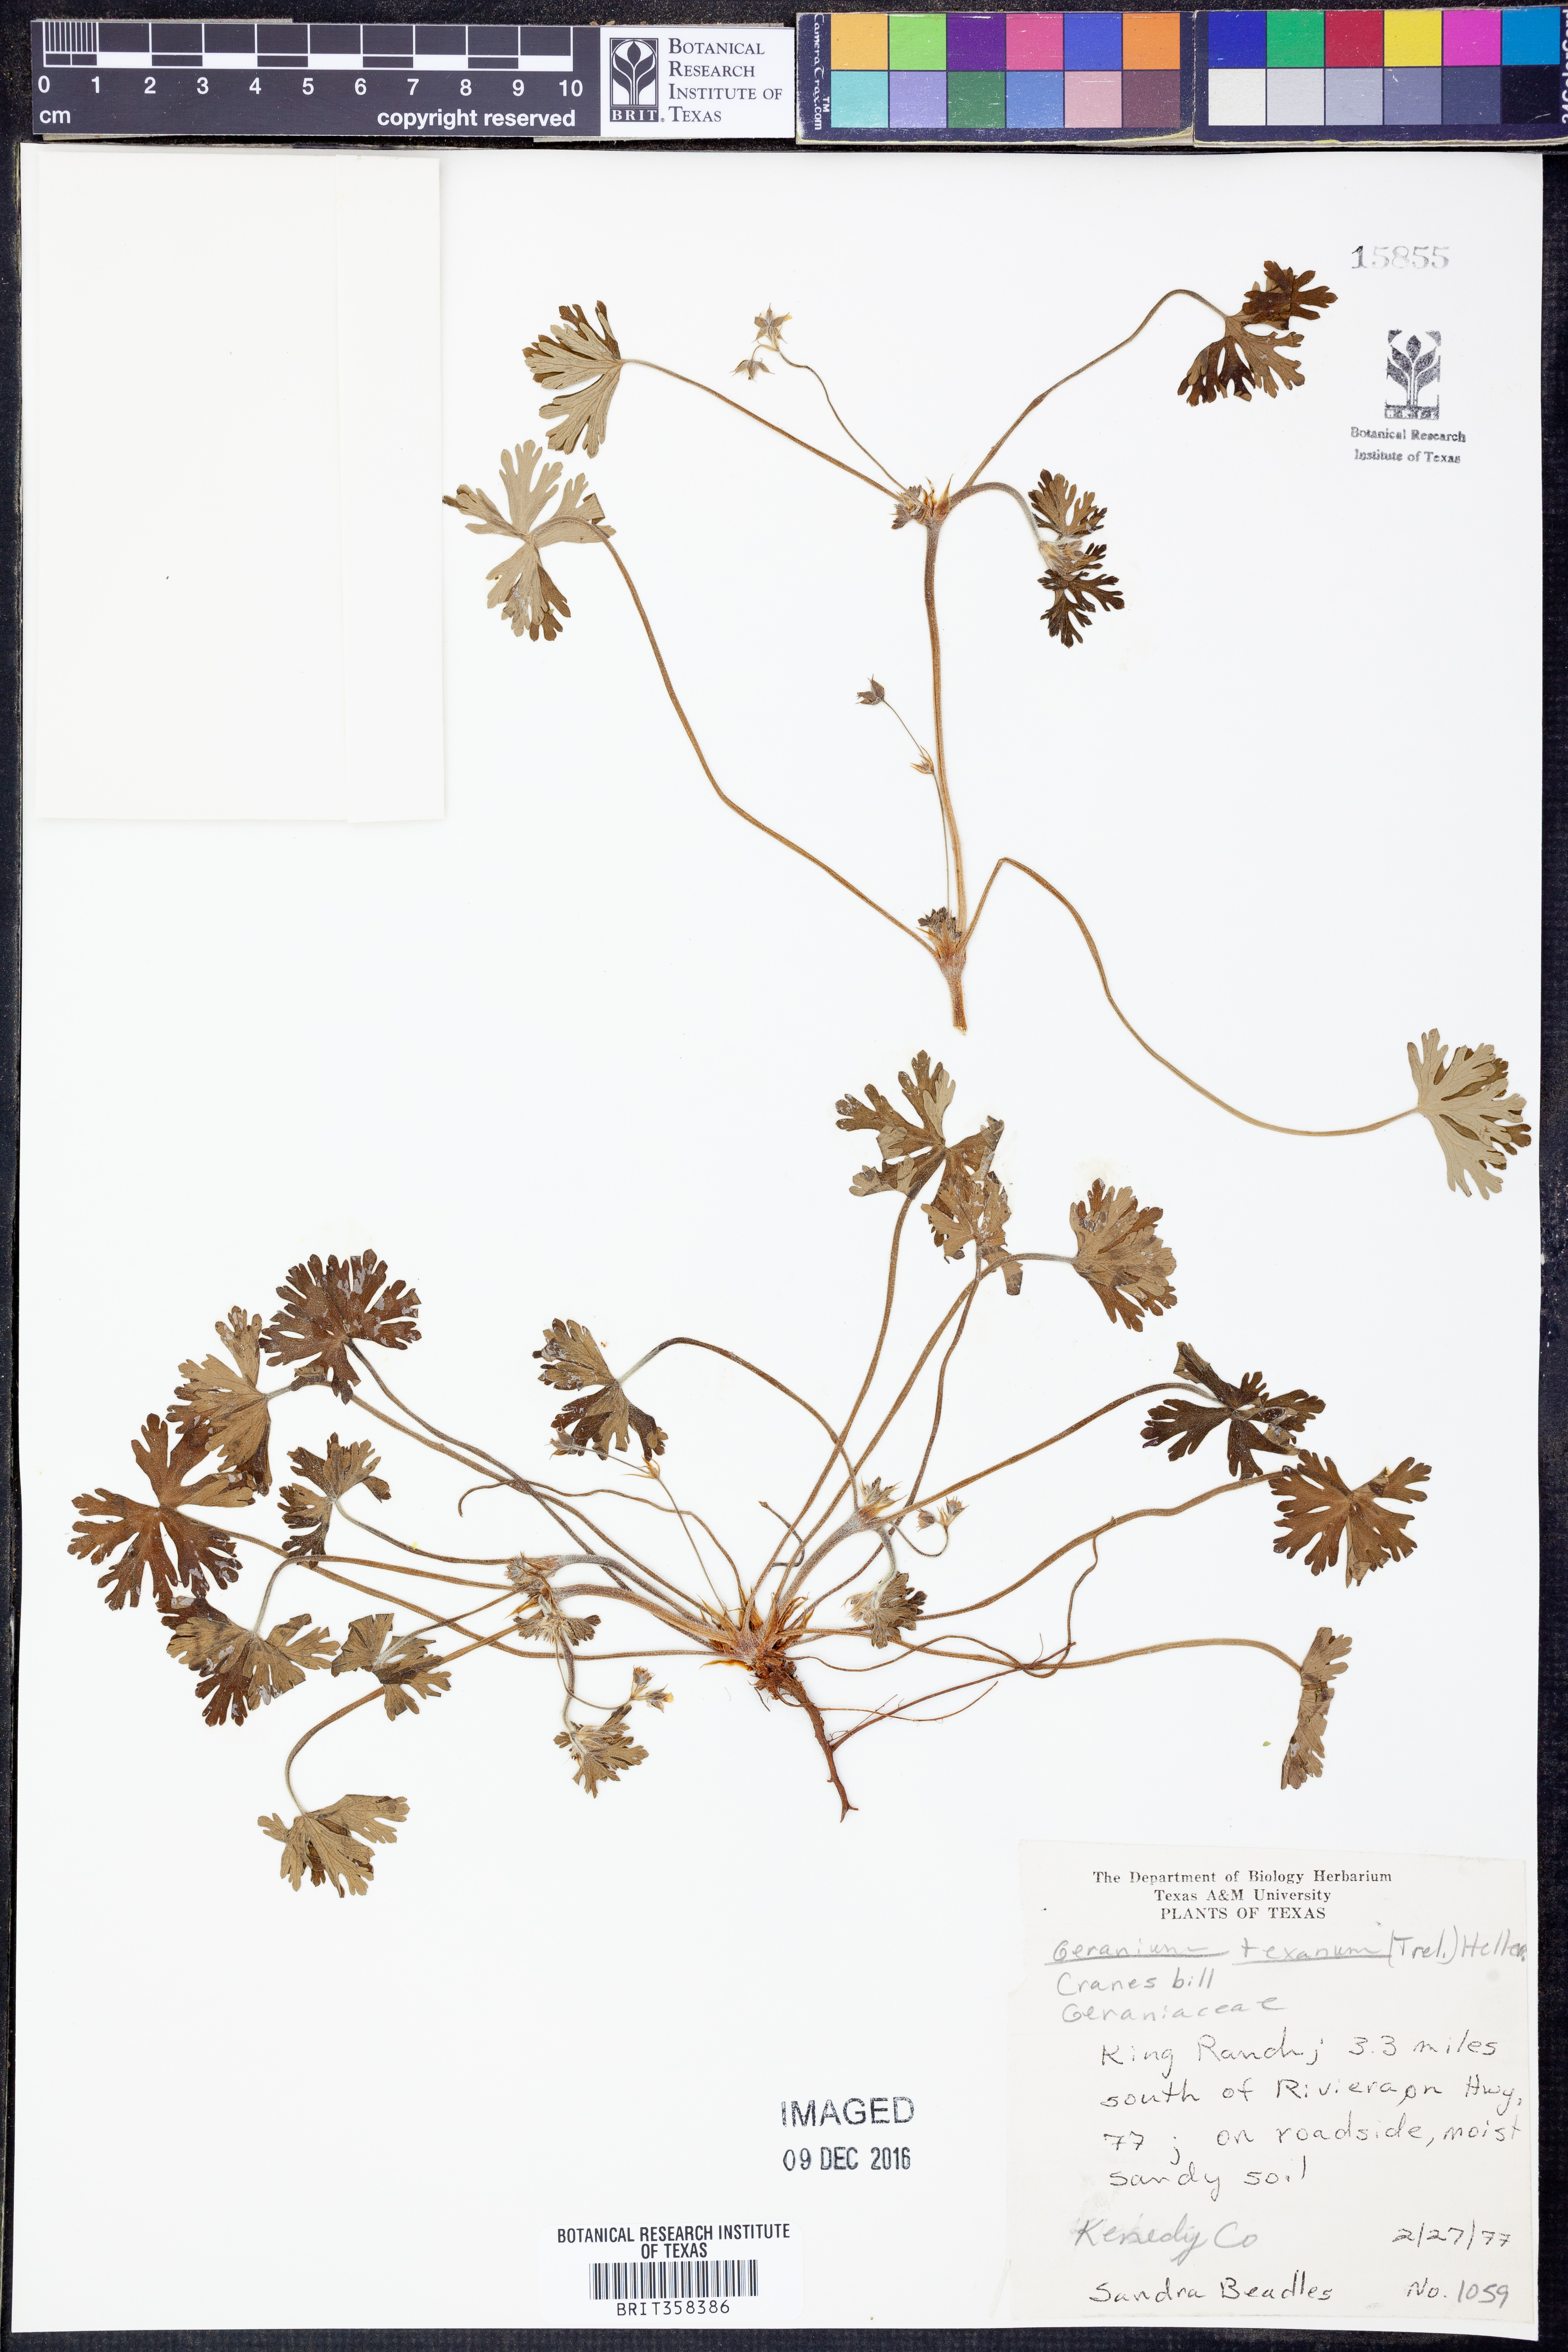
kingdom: Plantae
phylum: Tracheophyta
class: Magnoliopsida
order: Geraniales
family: Geraniaceae
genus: Geranium
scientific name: Geranium texanum
